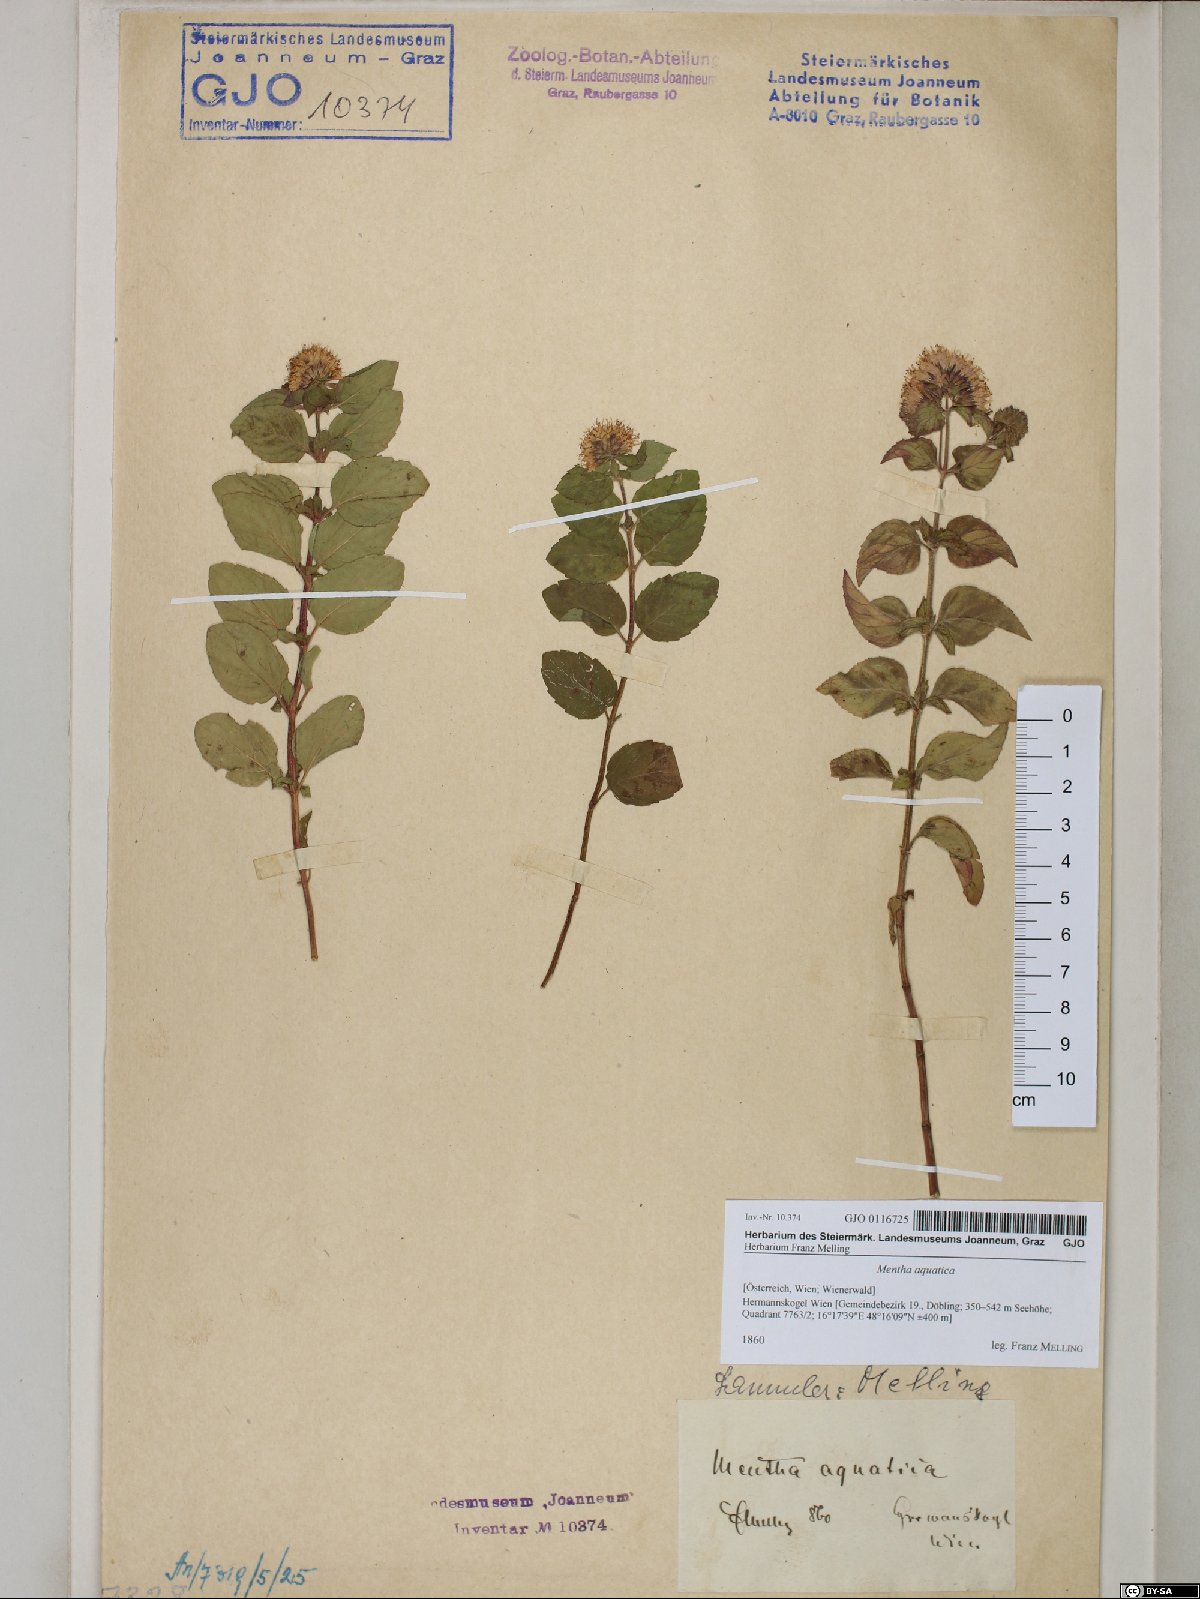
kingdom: Plantae
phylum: Tracheophyta
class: Magnoliopsida
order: Lamiales
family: Lamiaceae
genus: Mentha
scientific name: Mentha aquatica
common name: Water mint
